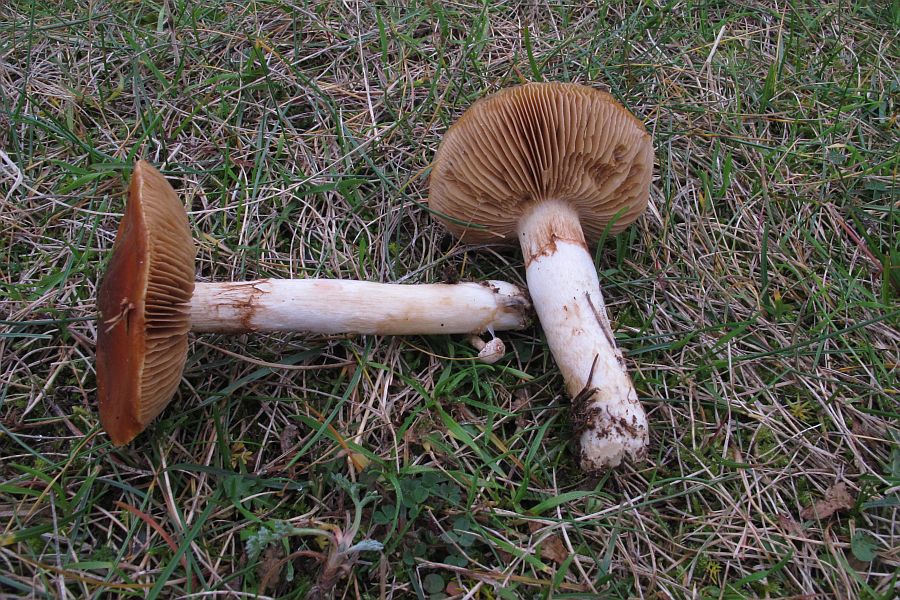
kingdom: Fungi
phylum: Basidiomycota
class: Agaricomycetes
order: Agaricales
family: Cortinariaceae
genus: Cortinarius
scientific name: Cortinarius mucosus
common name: kastaniebrun slørhat
